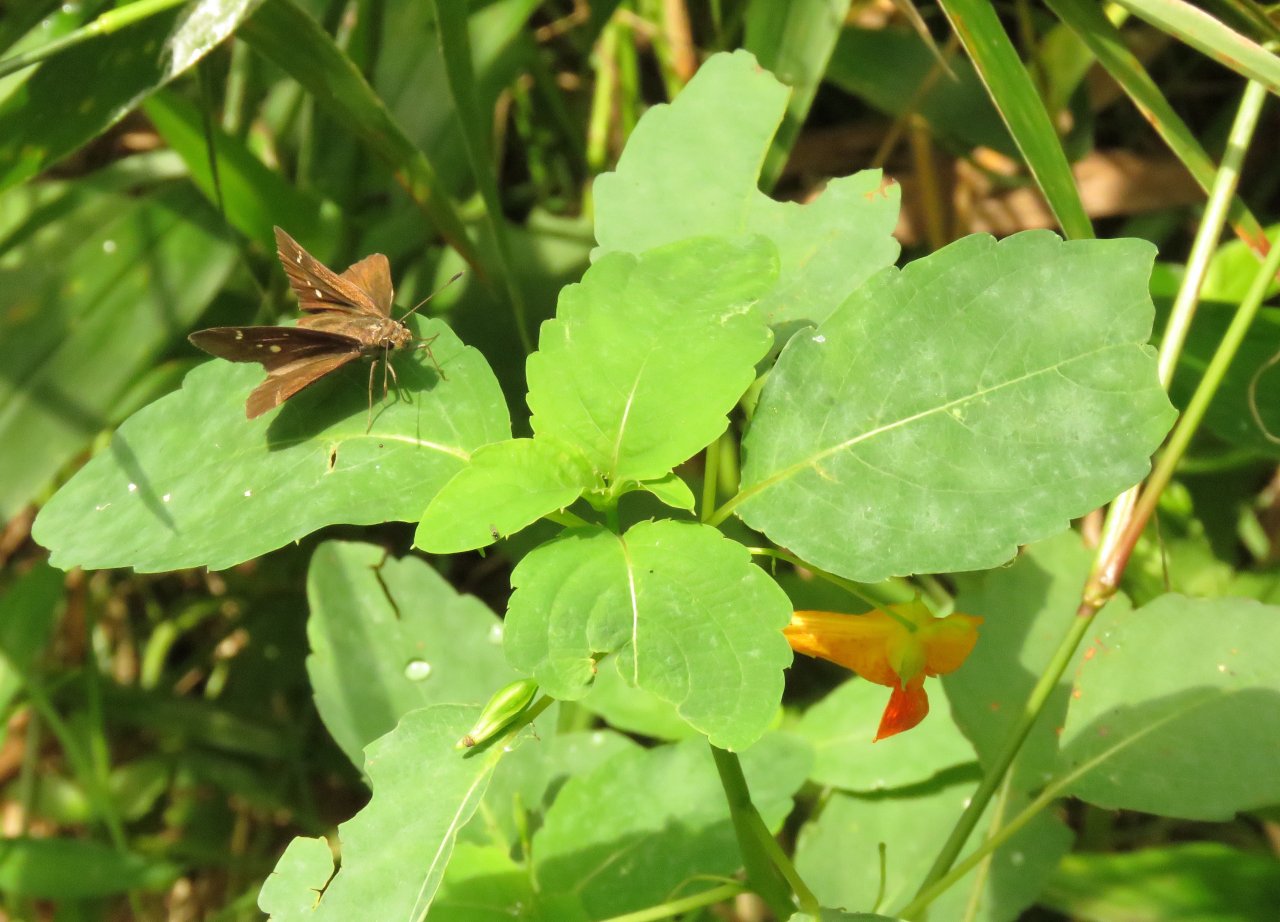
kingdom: Animalia
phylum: Arthropoda
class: Insecta
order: Lepidoptera
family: Hesperiidae
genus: Lerema
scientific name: Lerema accius
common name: Clouded Skipper
